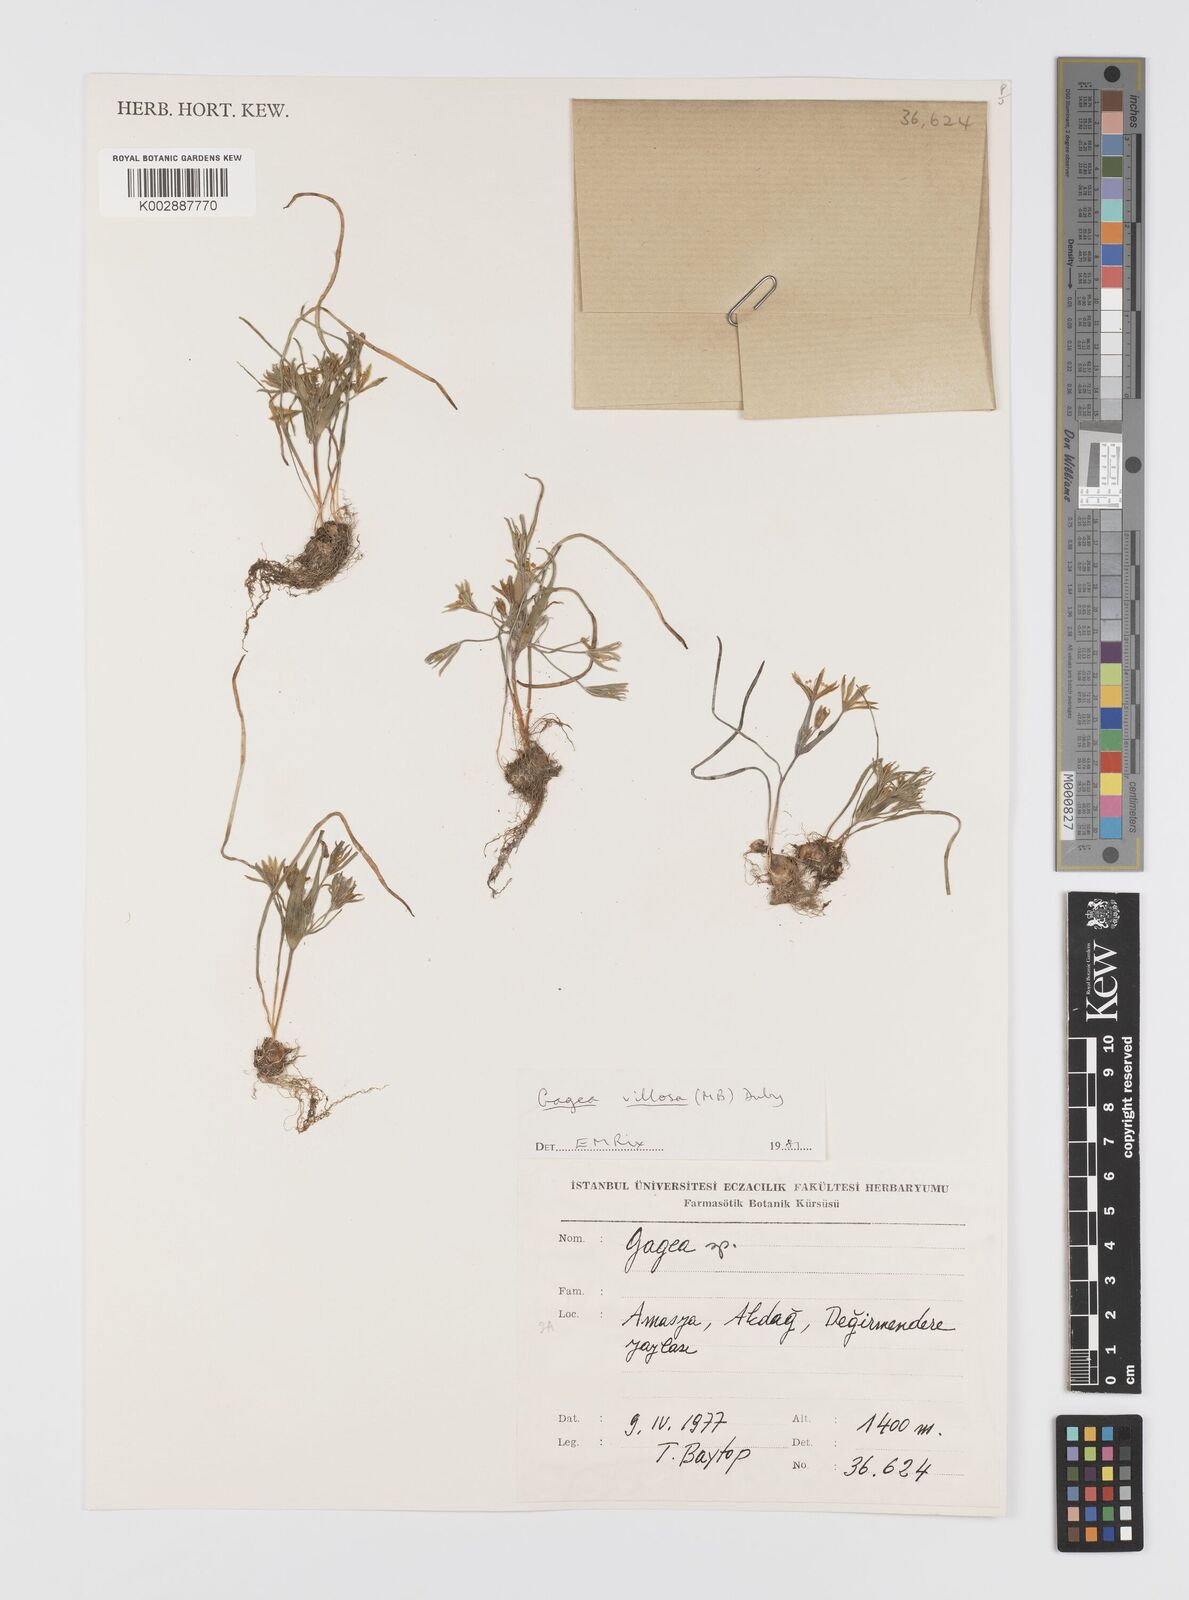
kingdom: Plantae
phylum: Tracheophyta
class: Liliopsida
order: Liliales
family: Liliaceae
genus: Gagea
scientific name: Gagea villosa
